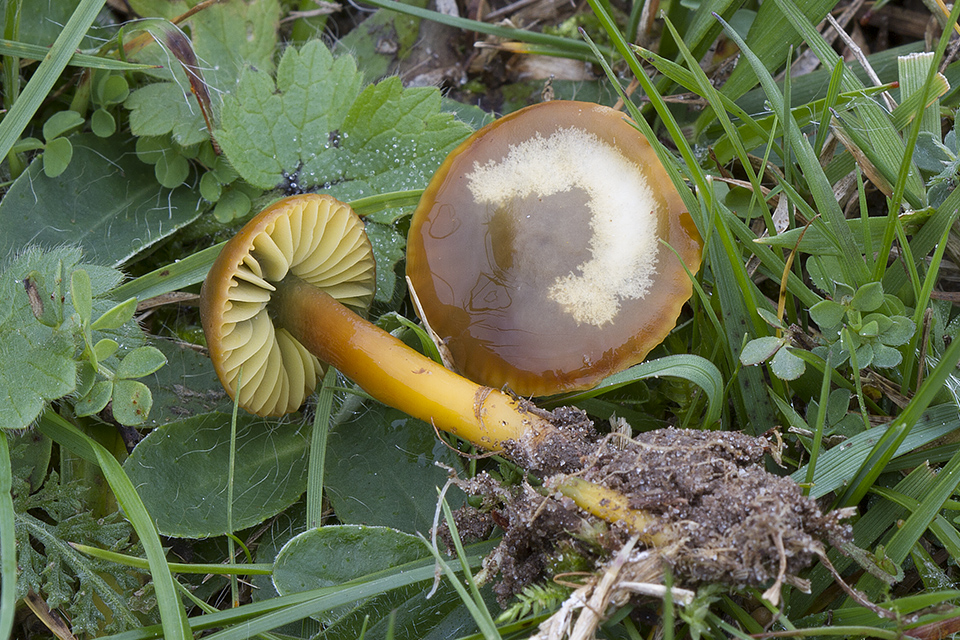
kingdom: Fungi
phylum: Basidiomycota
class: Agaricomycetes
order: Agaricales
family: Hygrophoraceae
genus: Gliophorus
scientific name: Gliophorus psittacinus
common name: papegøje-vokshat
